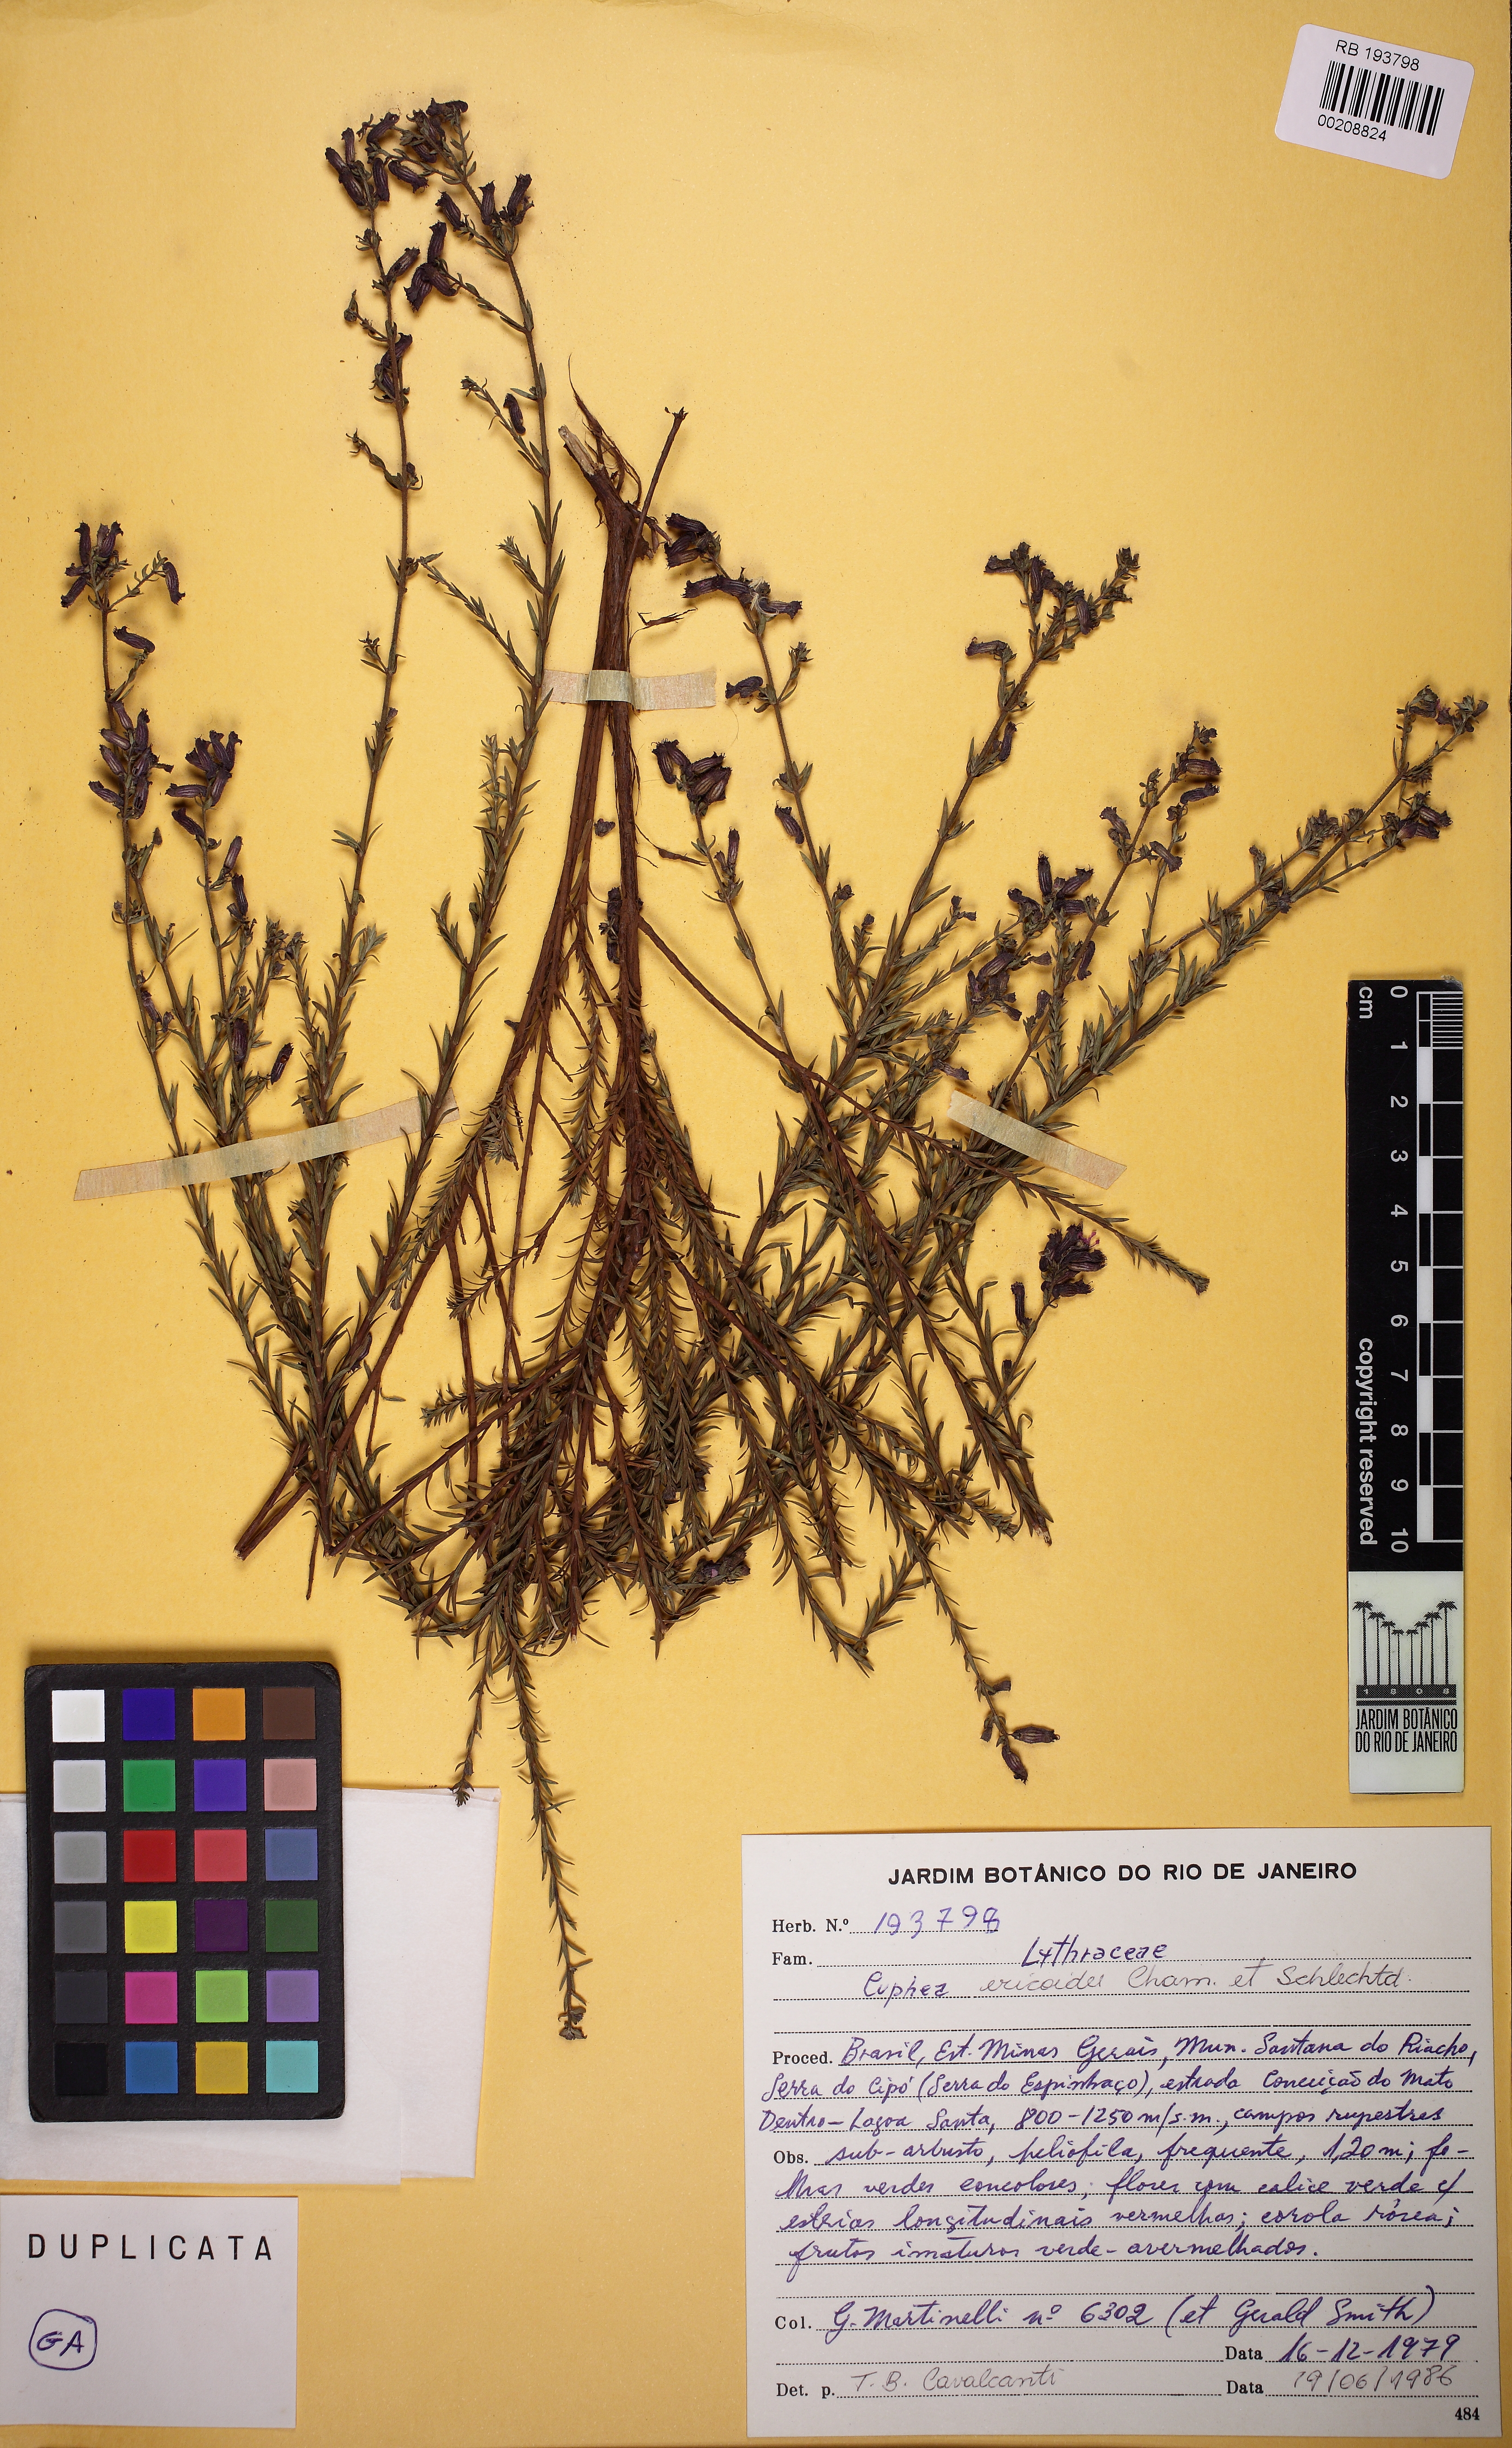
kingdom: Plantae
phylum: Tracheophyta
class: Magnoliopsida
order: Myrtales
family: Lythraceae
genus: Cuphea
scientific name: Cuphea ericoides
